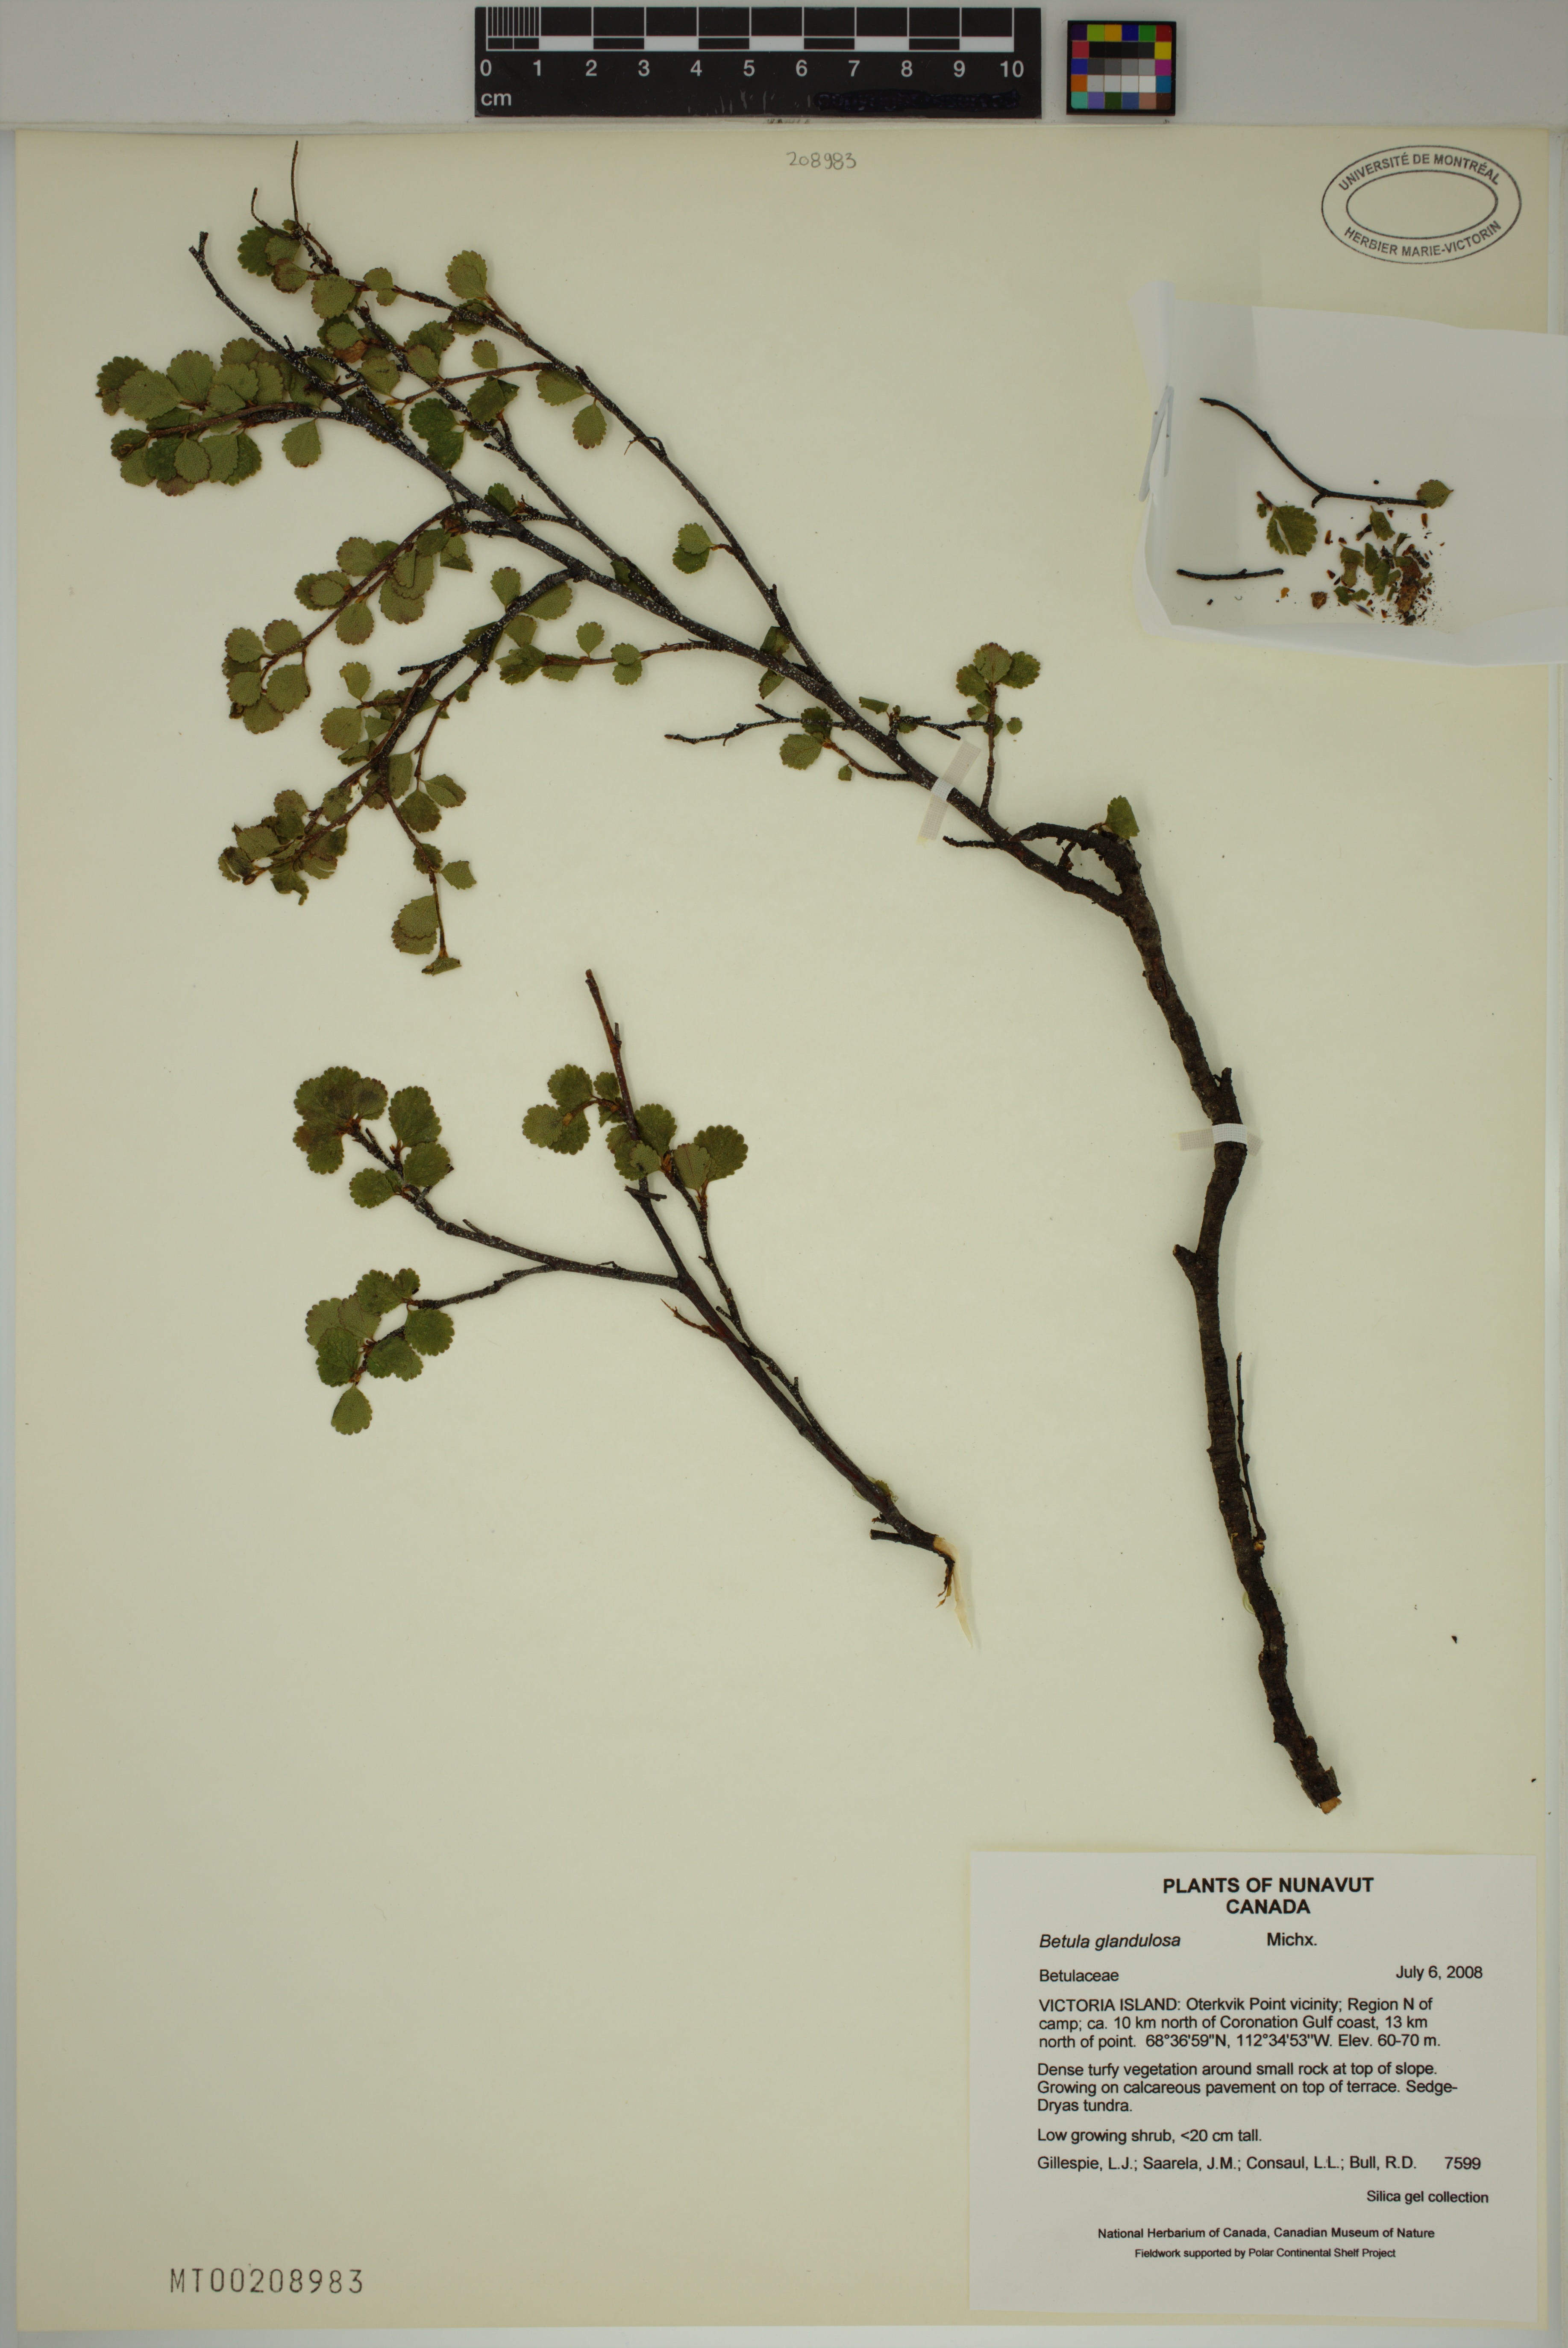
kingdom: Plantae
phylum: Tracheophyta
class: Magnoliopsida
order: Fagales
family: Betulaceae
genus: Betula
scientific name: Betula glandulosa
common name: Dwarf birch
